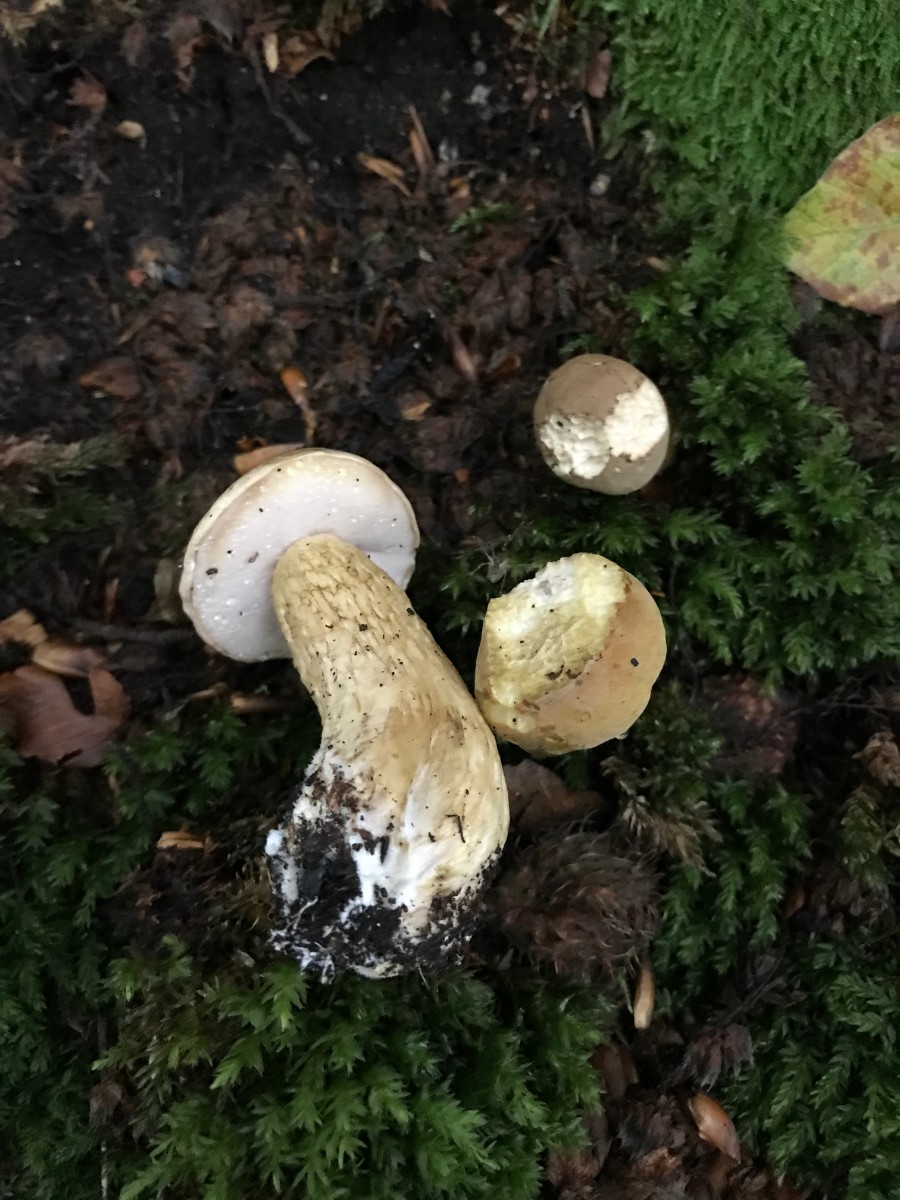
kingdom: Fungi
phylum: Basidiomycota
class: Agaricomycetes
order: Boletales
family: Boletaceae
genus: Tylopilus
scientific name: Tylopilus felleus
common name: galderørhat
